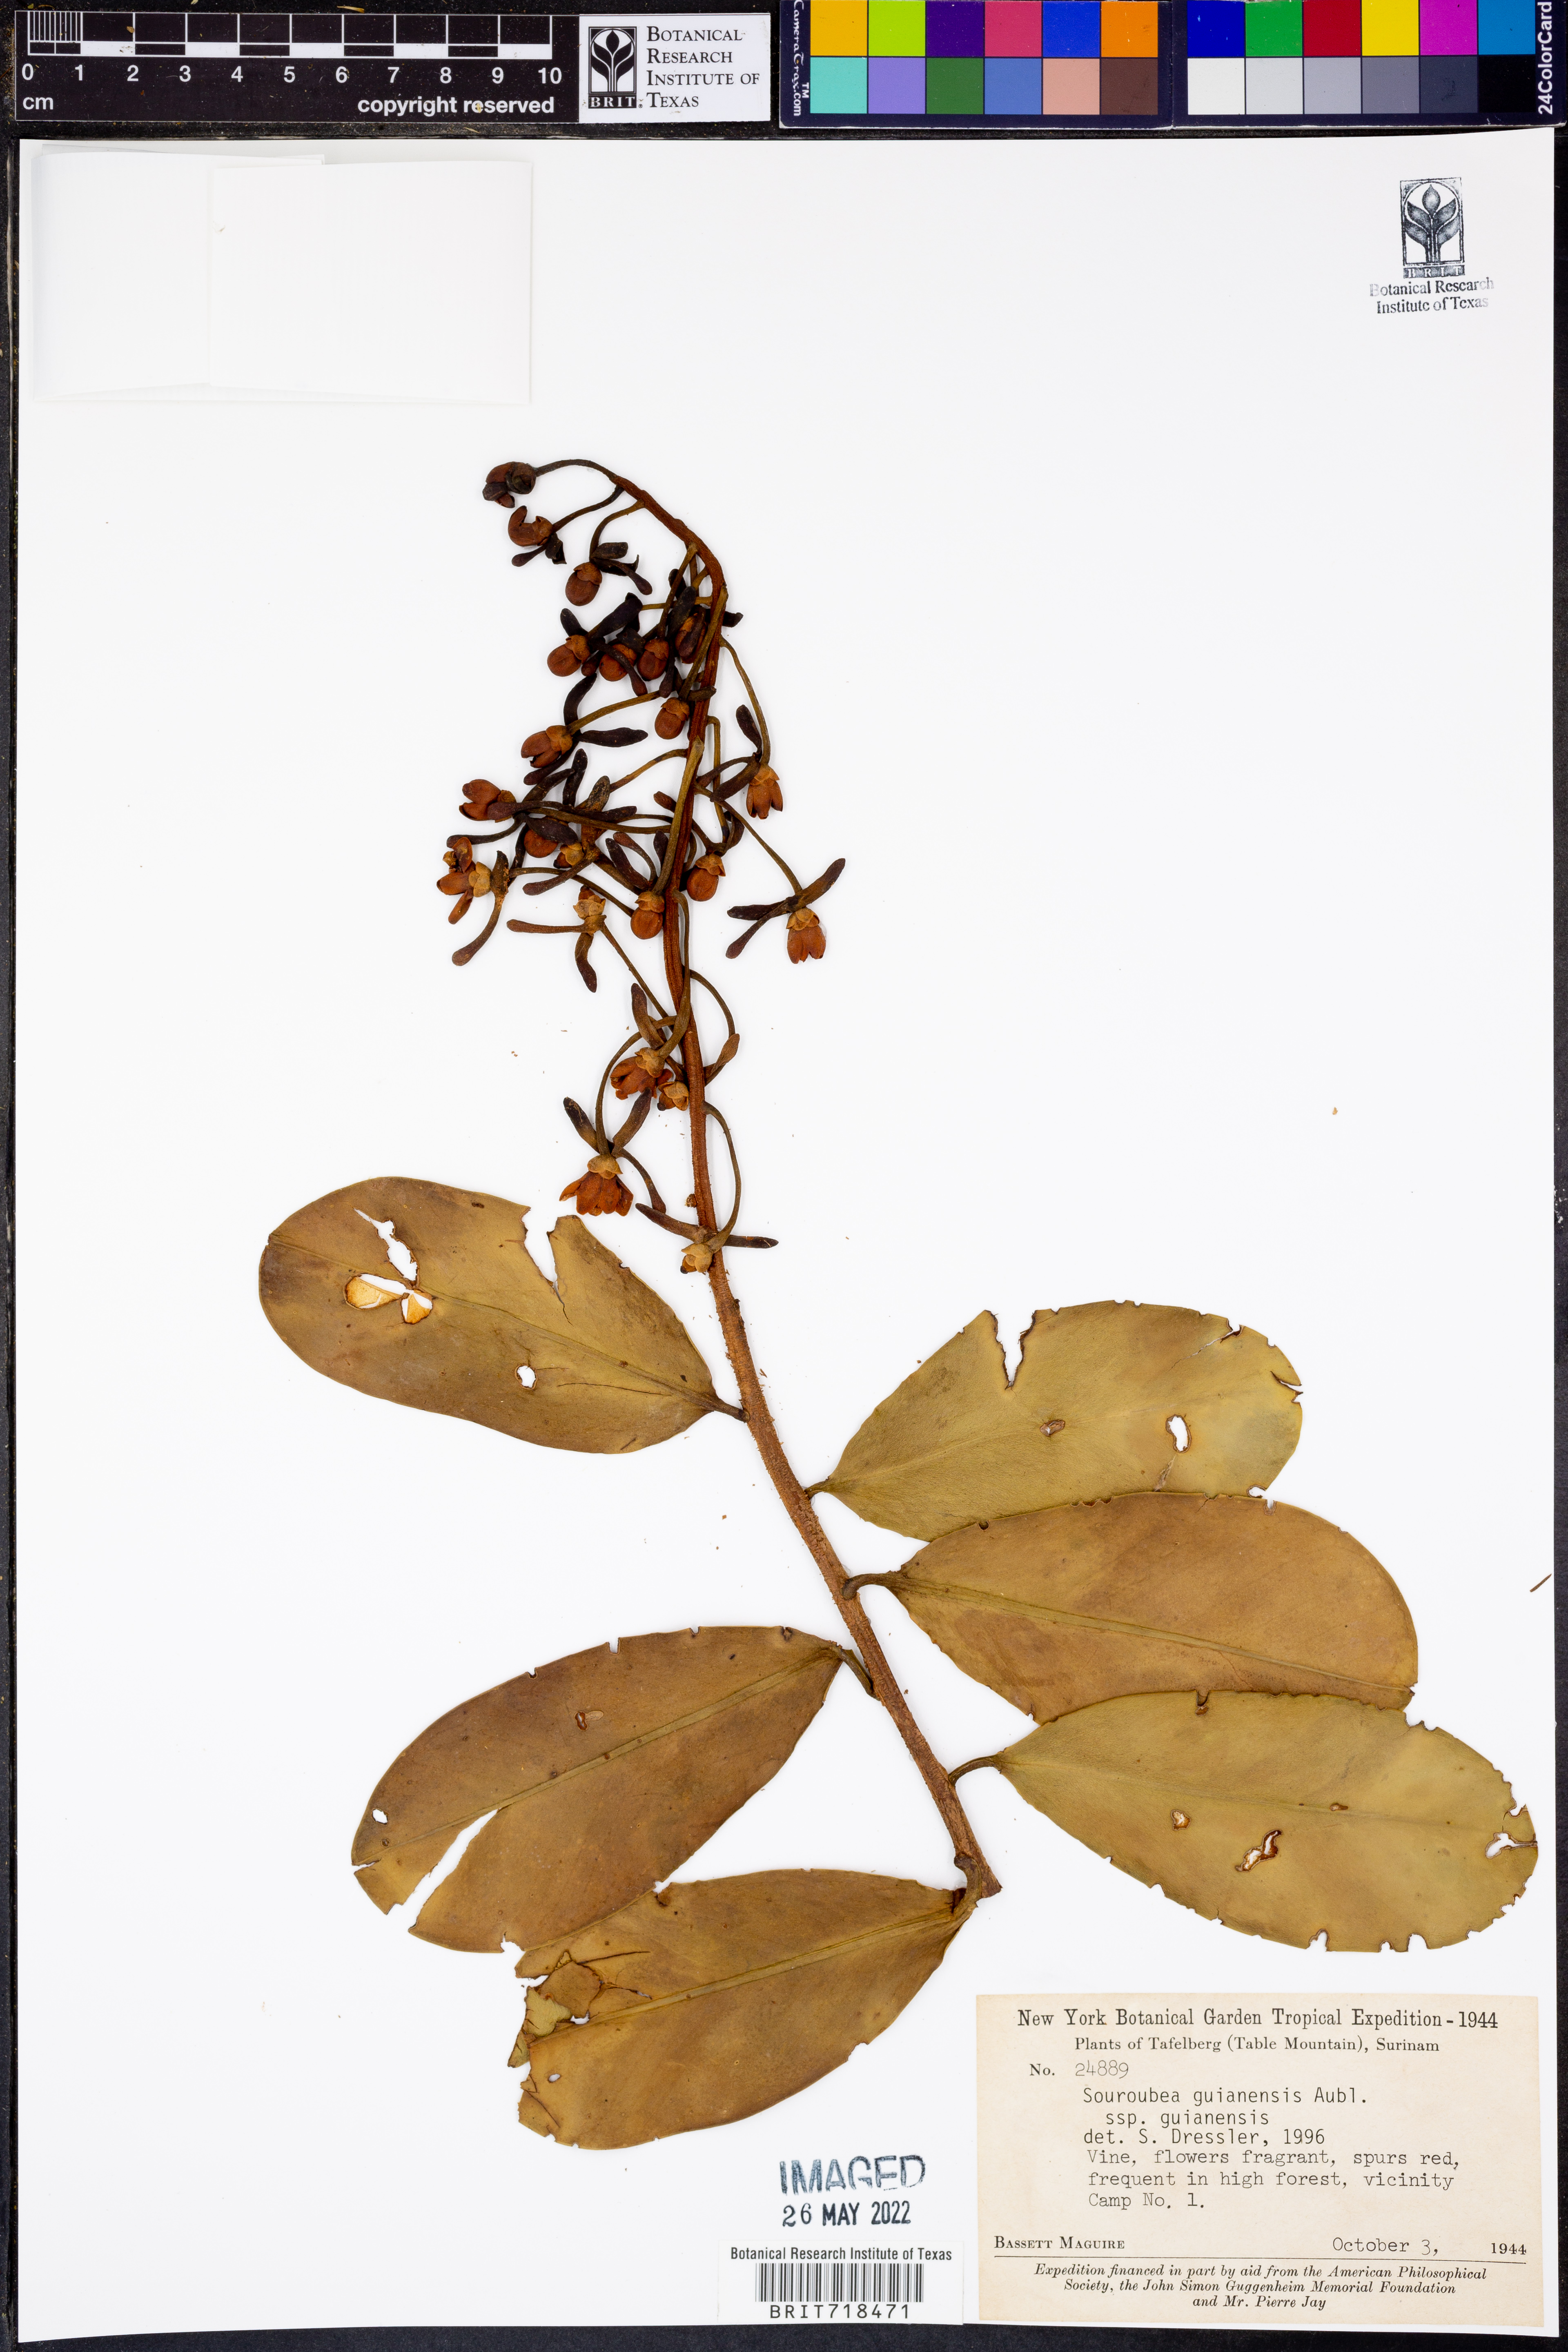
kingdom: Plantae
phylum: Tracheophyta
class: Magnoliopsida
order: Ericales
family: Marcgraviaceae
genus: Souroubea
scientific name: Souroubea
